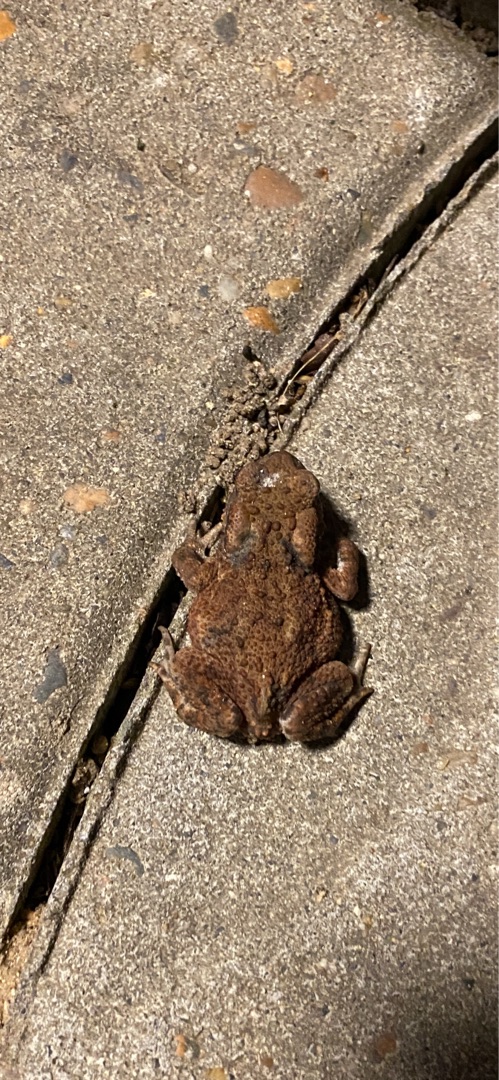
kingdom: Animalia
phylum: Chordata
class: Amphibia
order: Anura
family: Bufonidae
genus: Bufo
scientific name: Bufo bufo
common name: Skrubtudse
